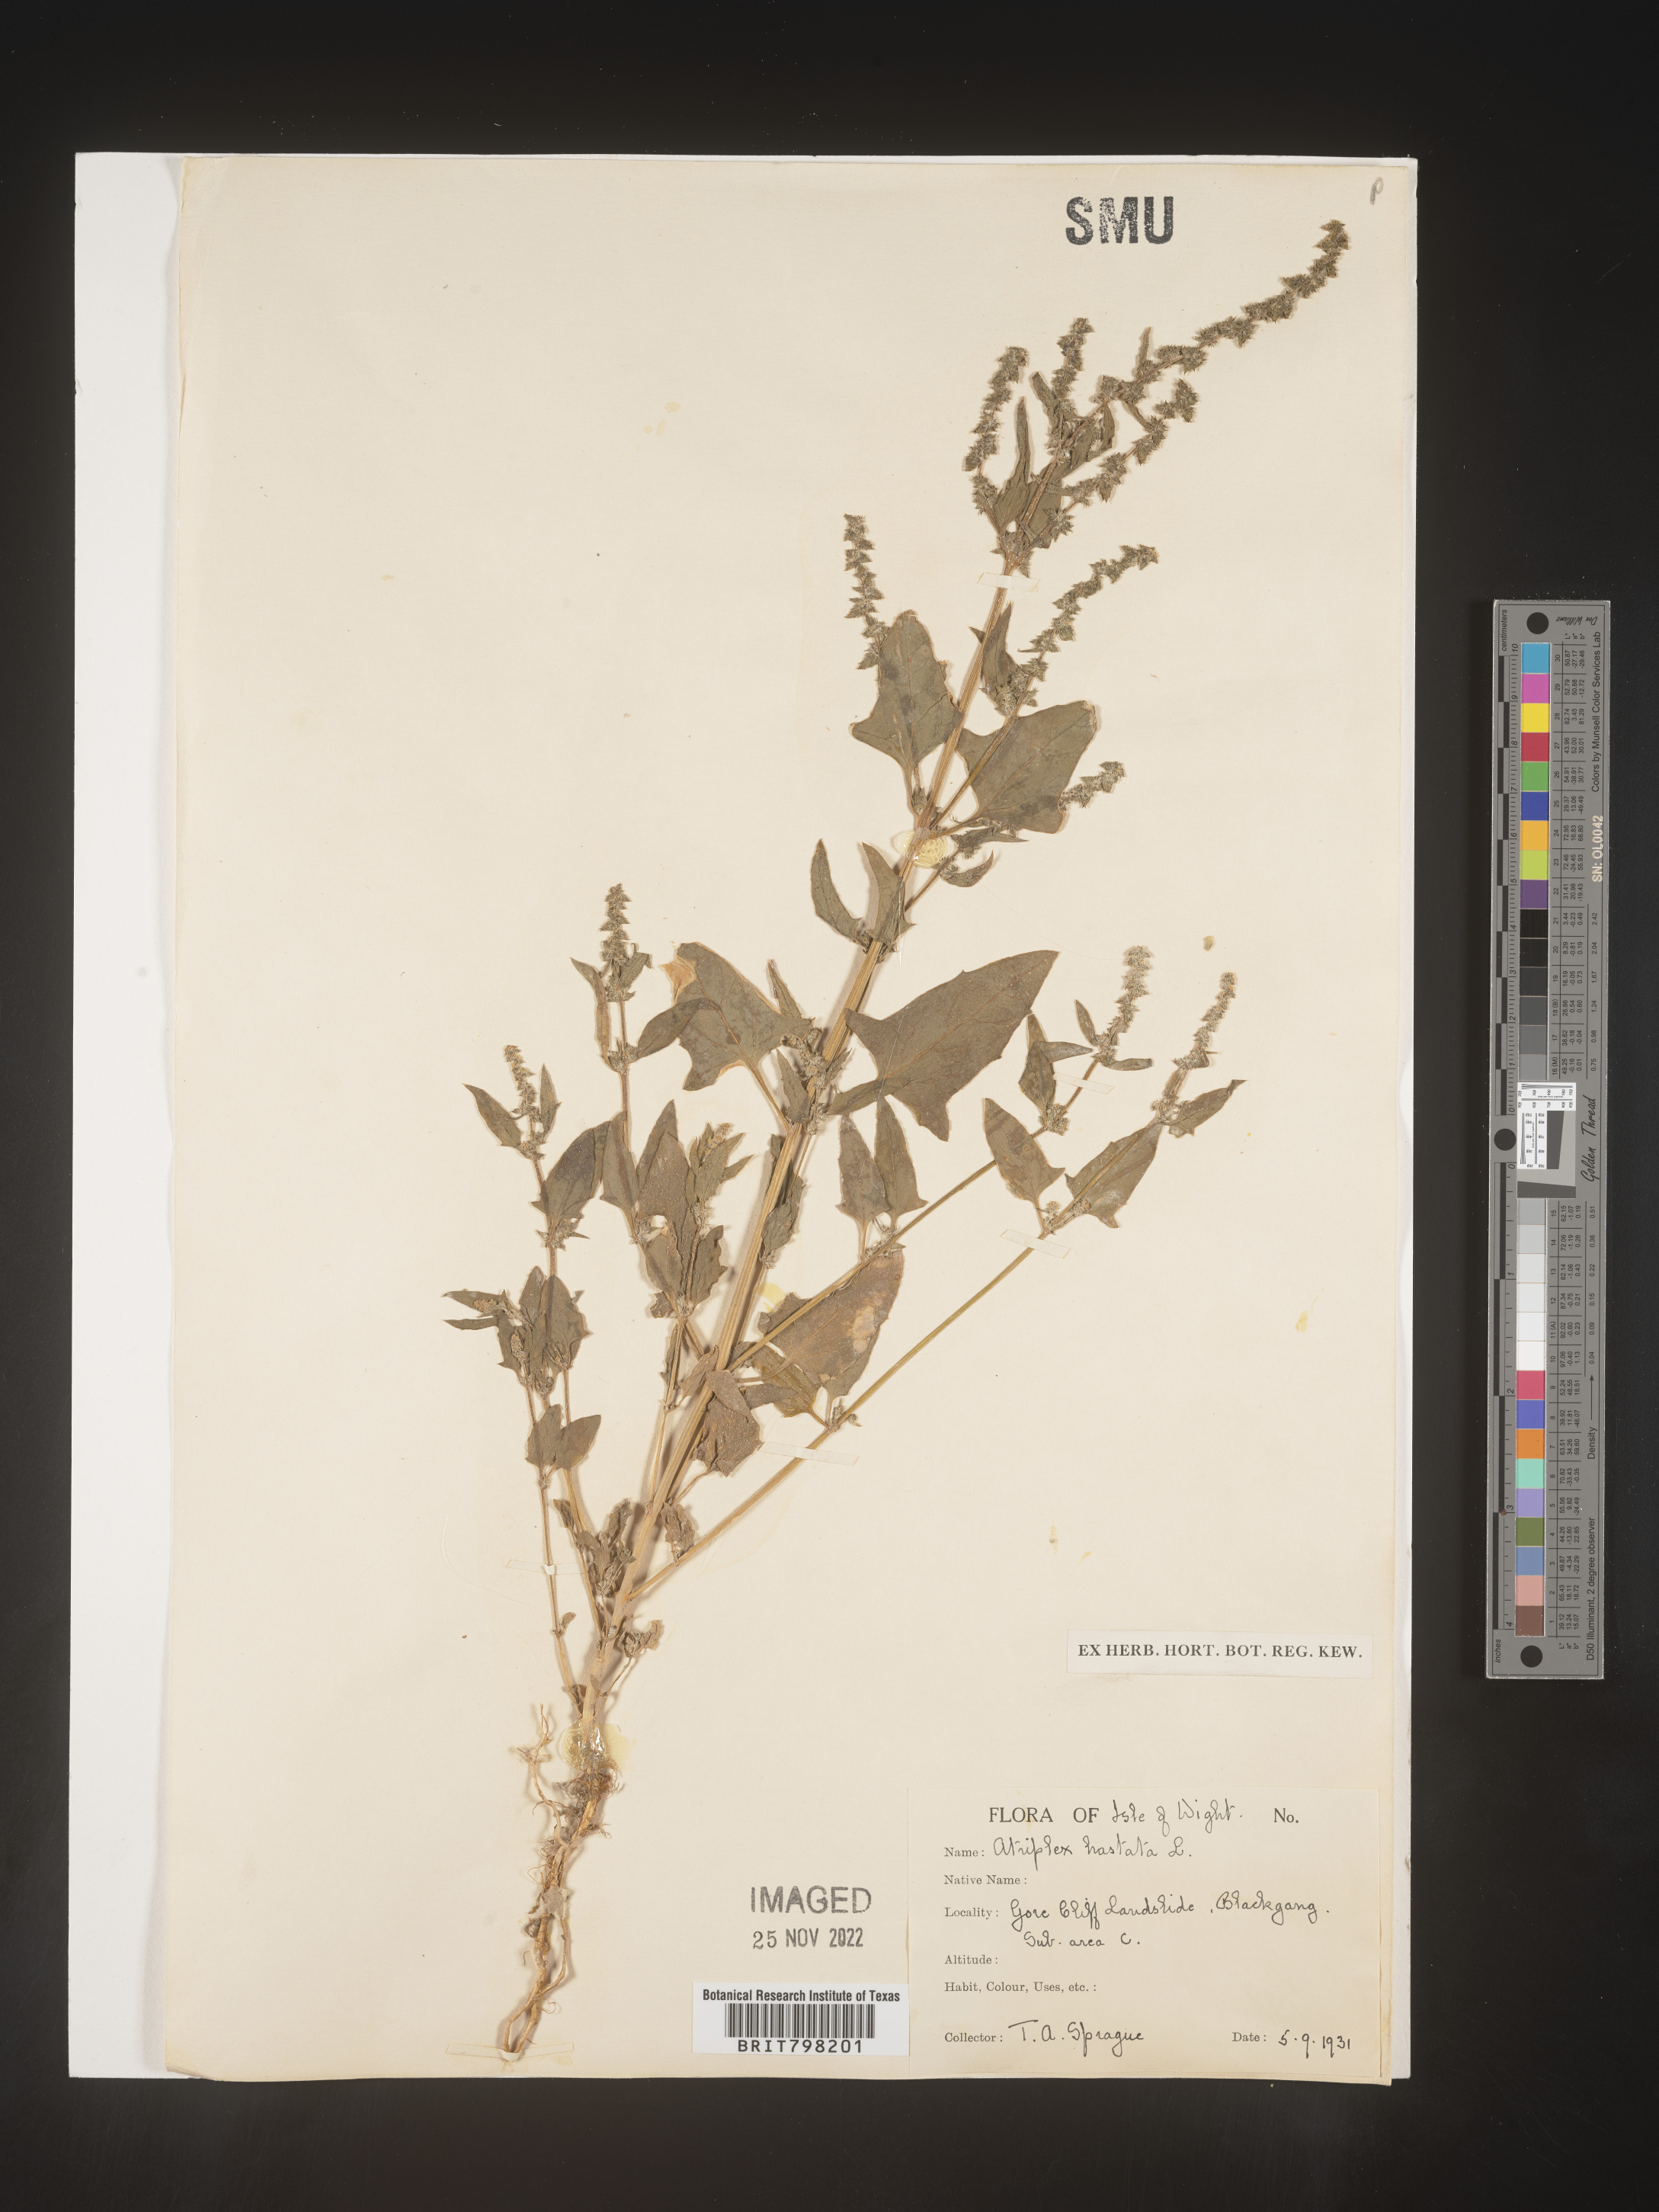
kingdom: Plantae
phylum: Tracheophyta
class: Magnoliopsida
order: Caryophyllales
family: Amaranthaceae
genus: Atriplex
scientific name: Atriplex
